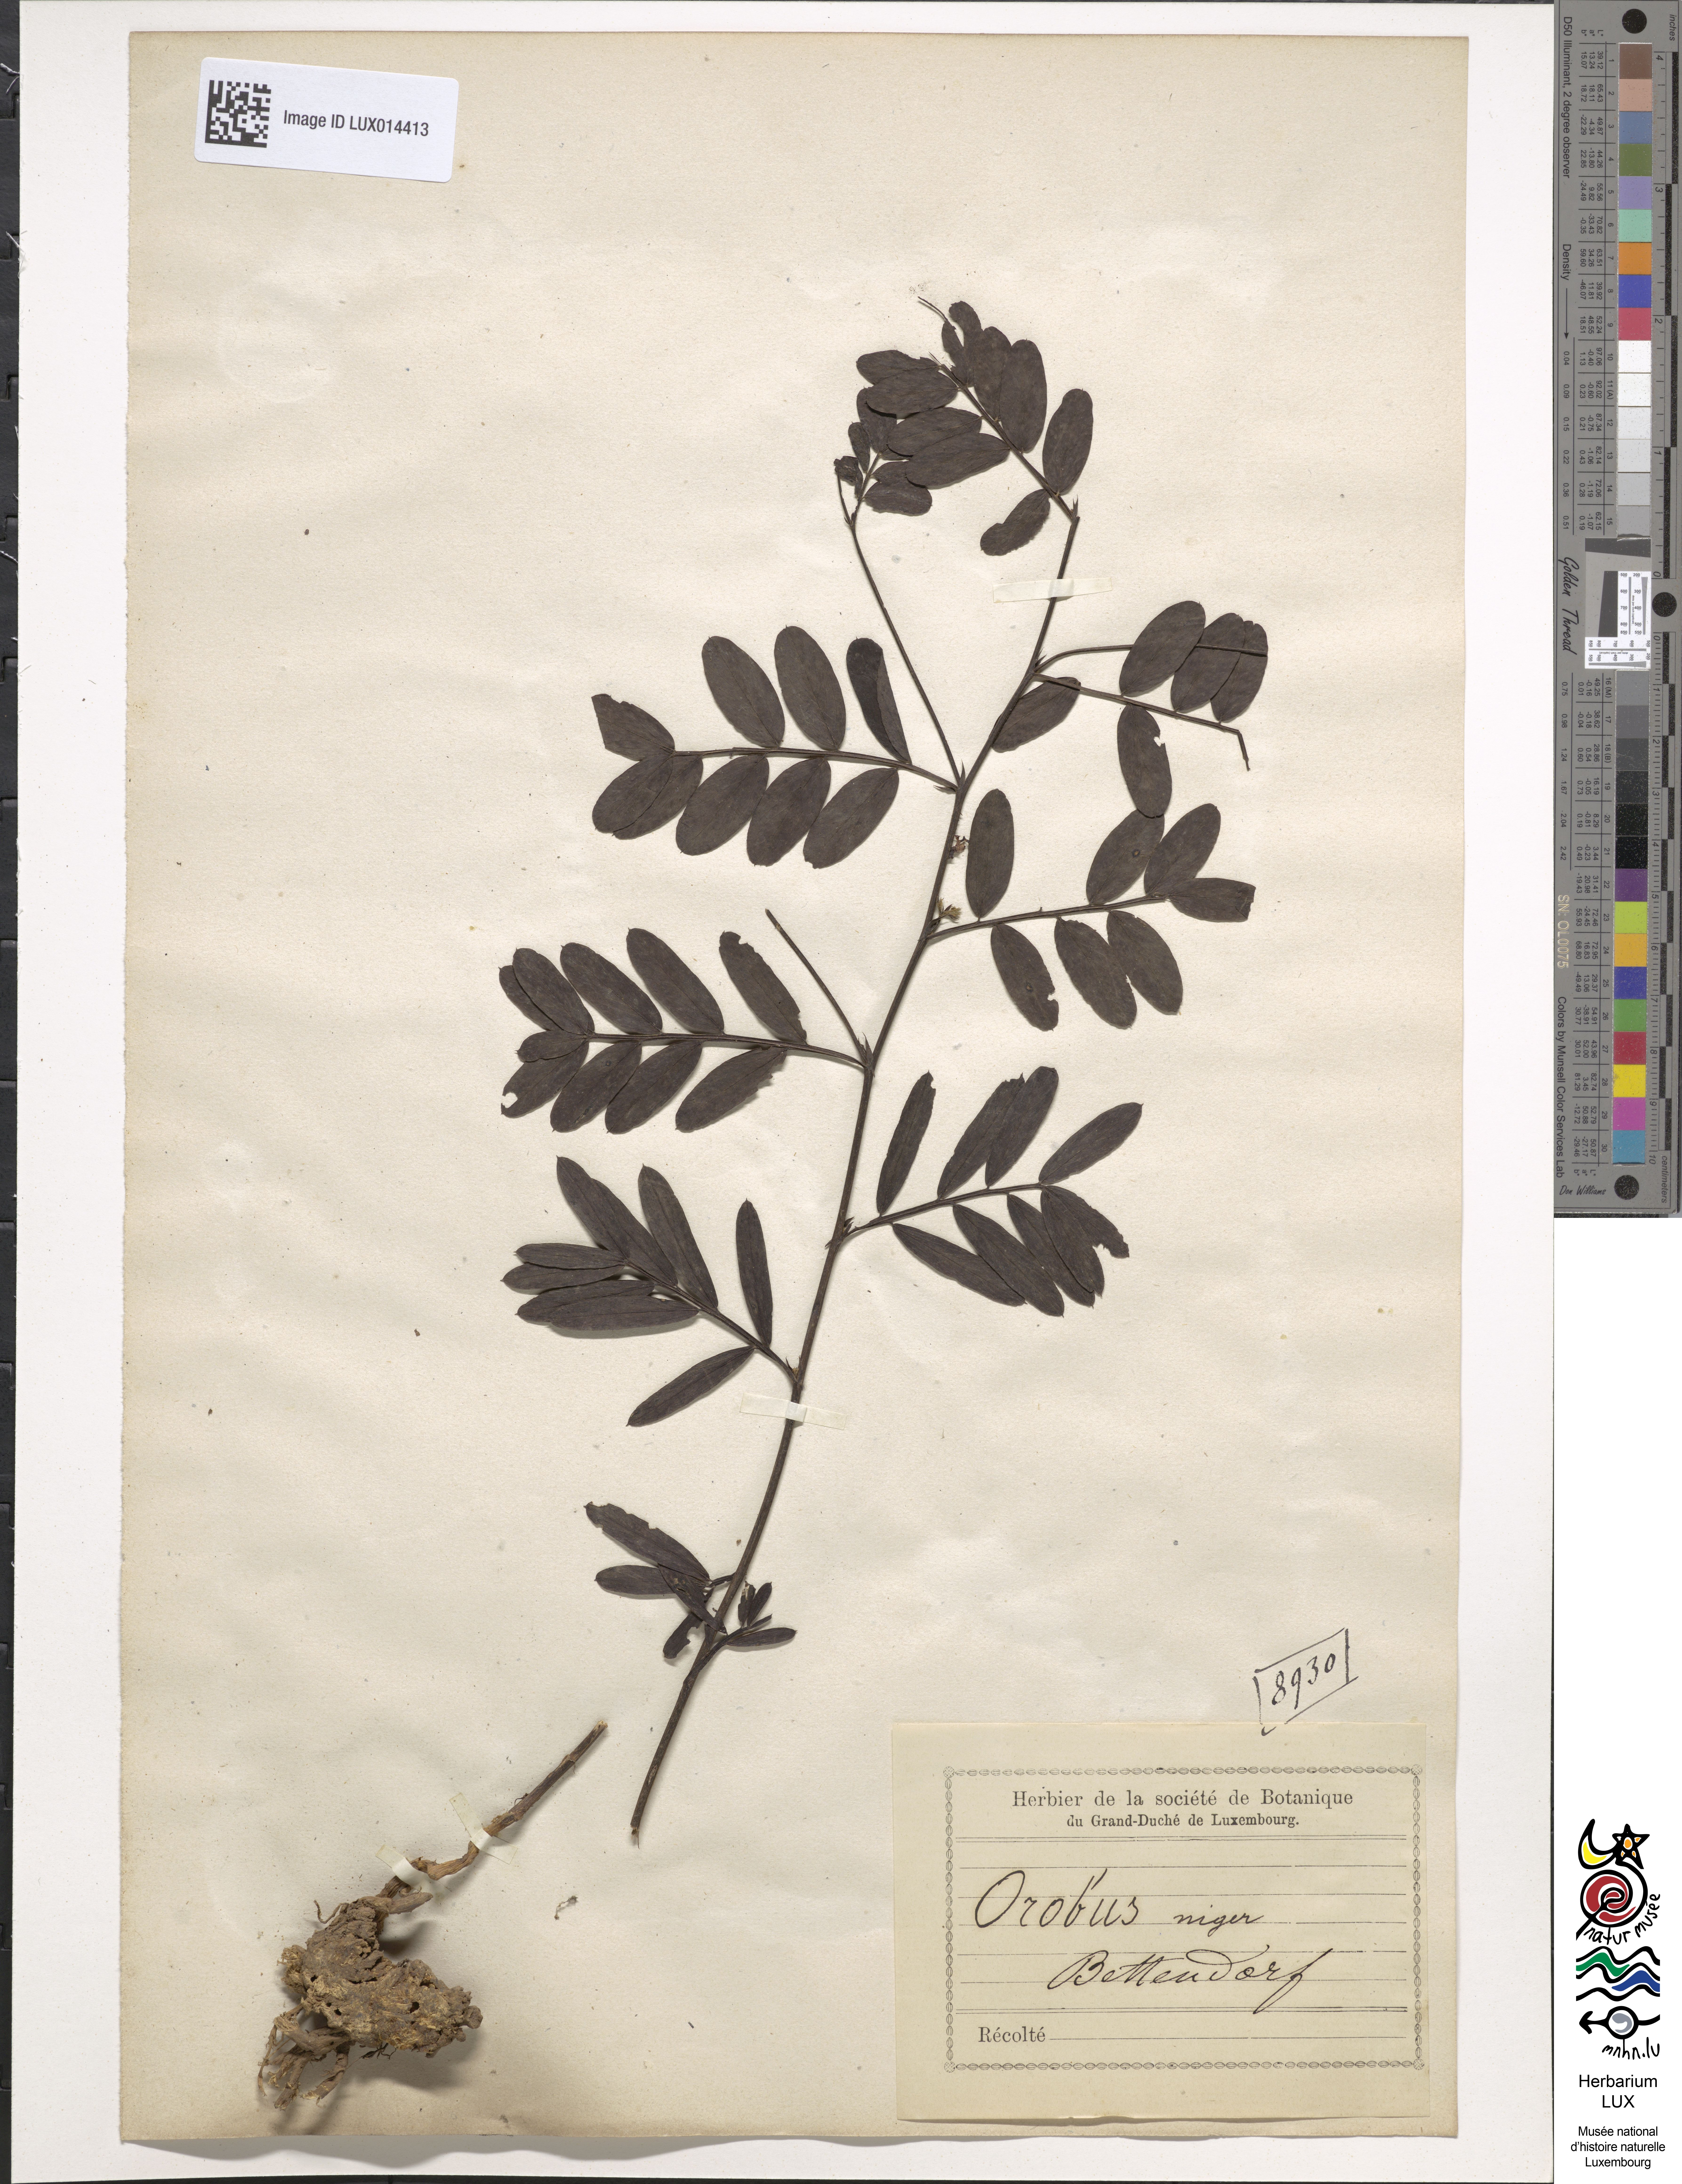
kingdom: Plantae
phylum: Tracheophyta
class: Magnoliopsida
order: Fabales
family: Fabaceae
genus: Lathyrus
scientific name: Lathyrus niger
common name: Black pea
